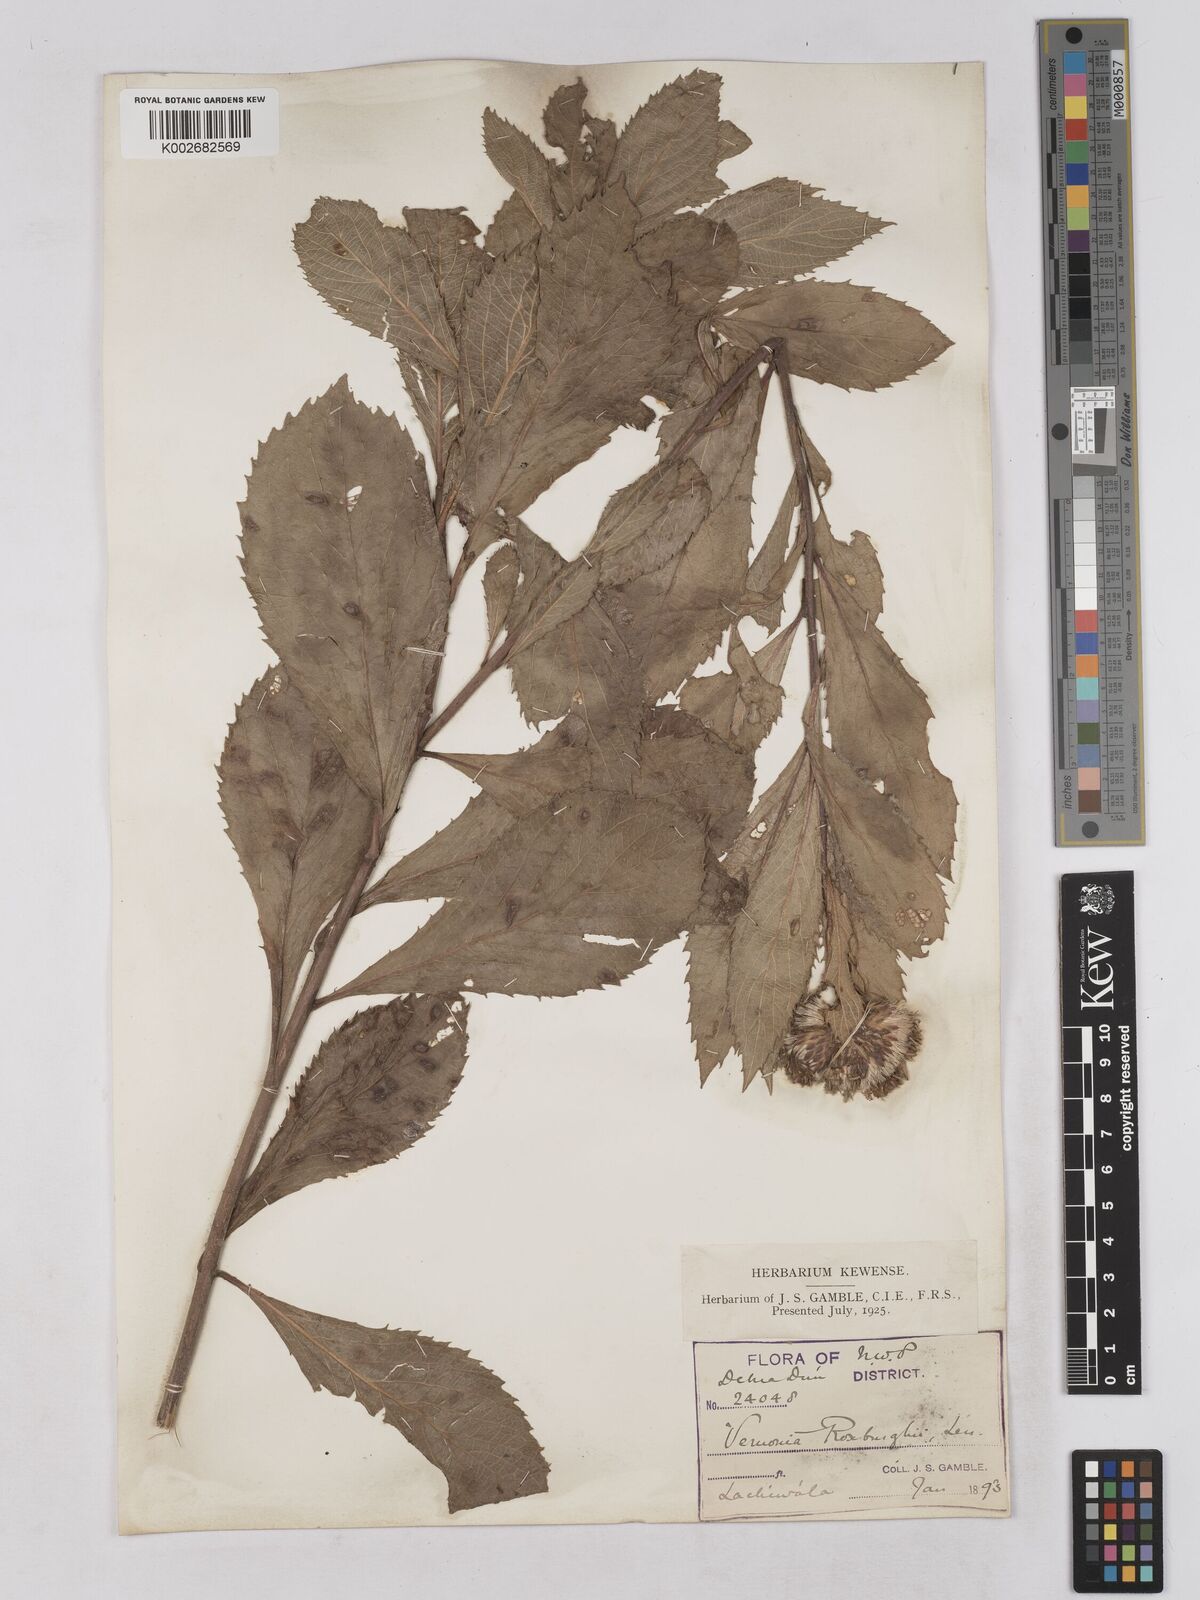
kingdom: Plantae
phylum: Tracheophyta
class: Magnoliopsida
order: Asterales
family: Asteraceae
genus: Acilepis
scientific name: Acilepis aspera
